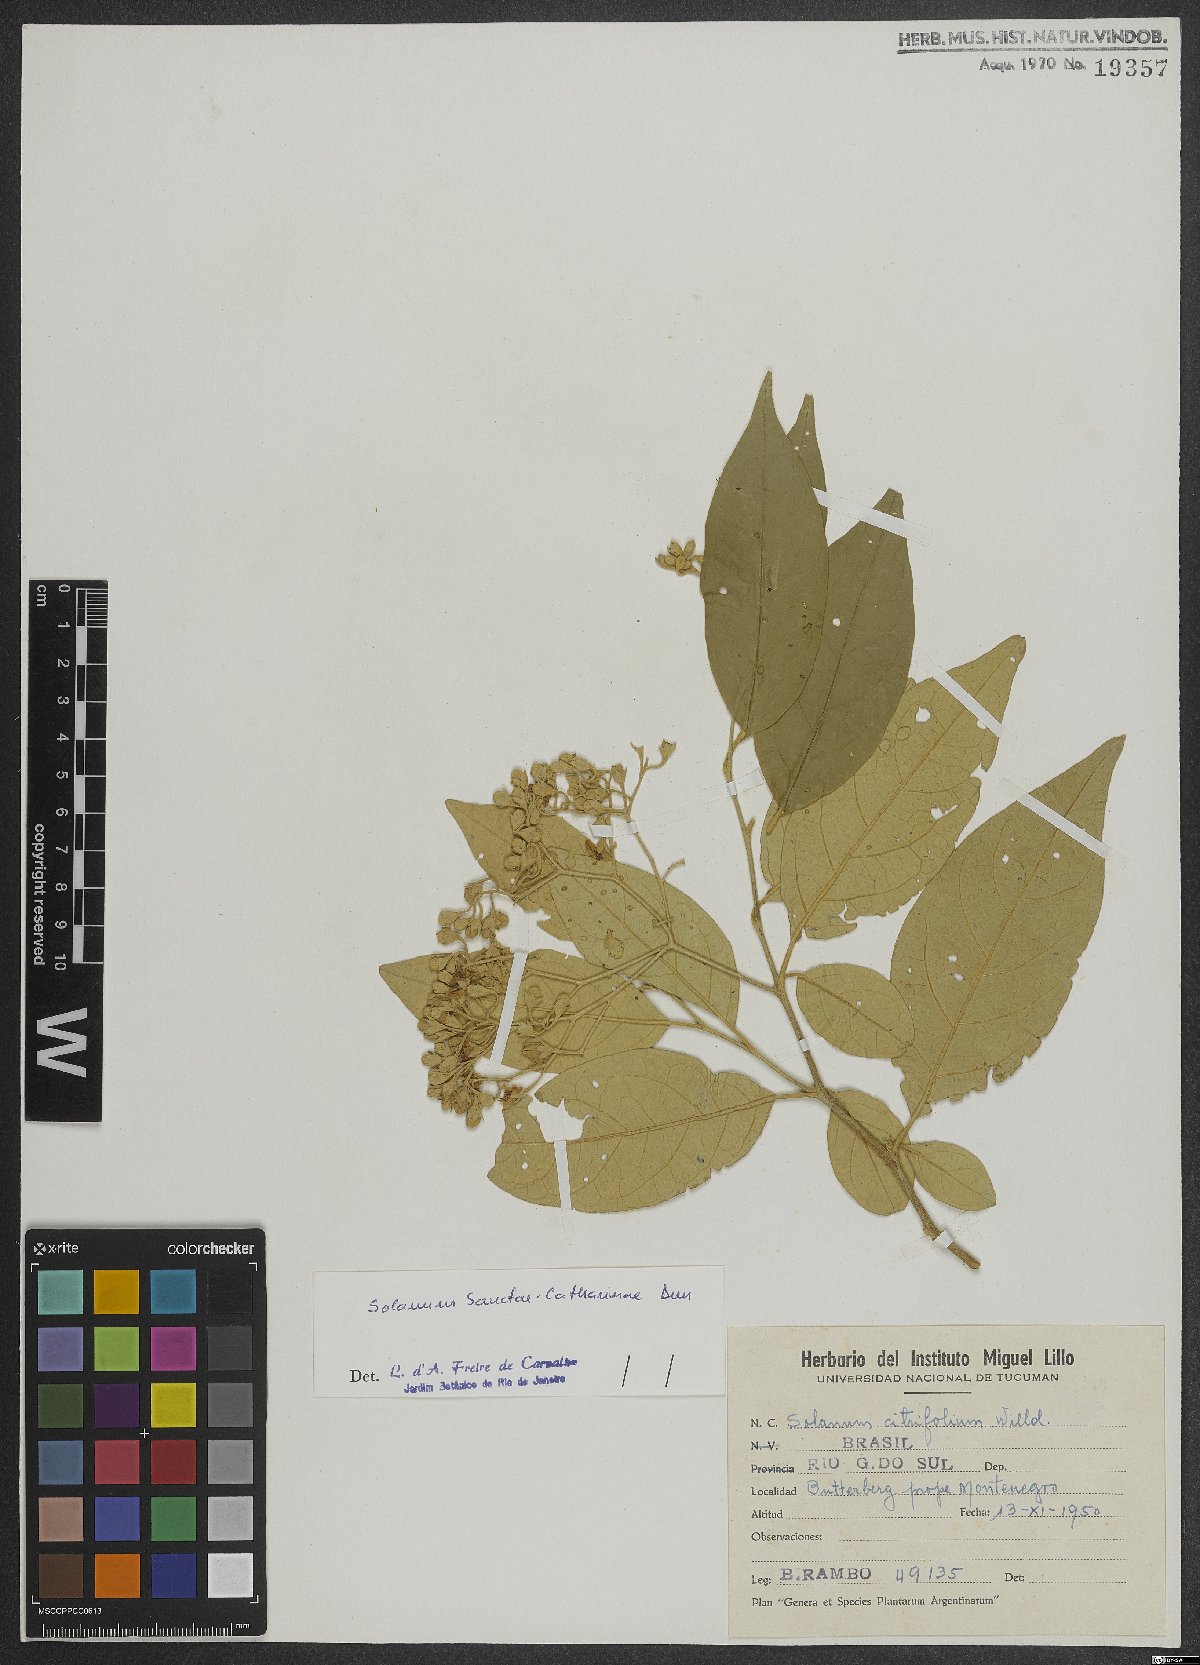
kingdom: Plantae
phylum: Tracheophyta
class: Magnoliopsida
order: Solanales
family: Solanaceae
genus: Solanum
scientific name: Solanum sanctae-catharinae
